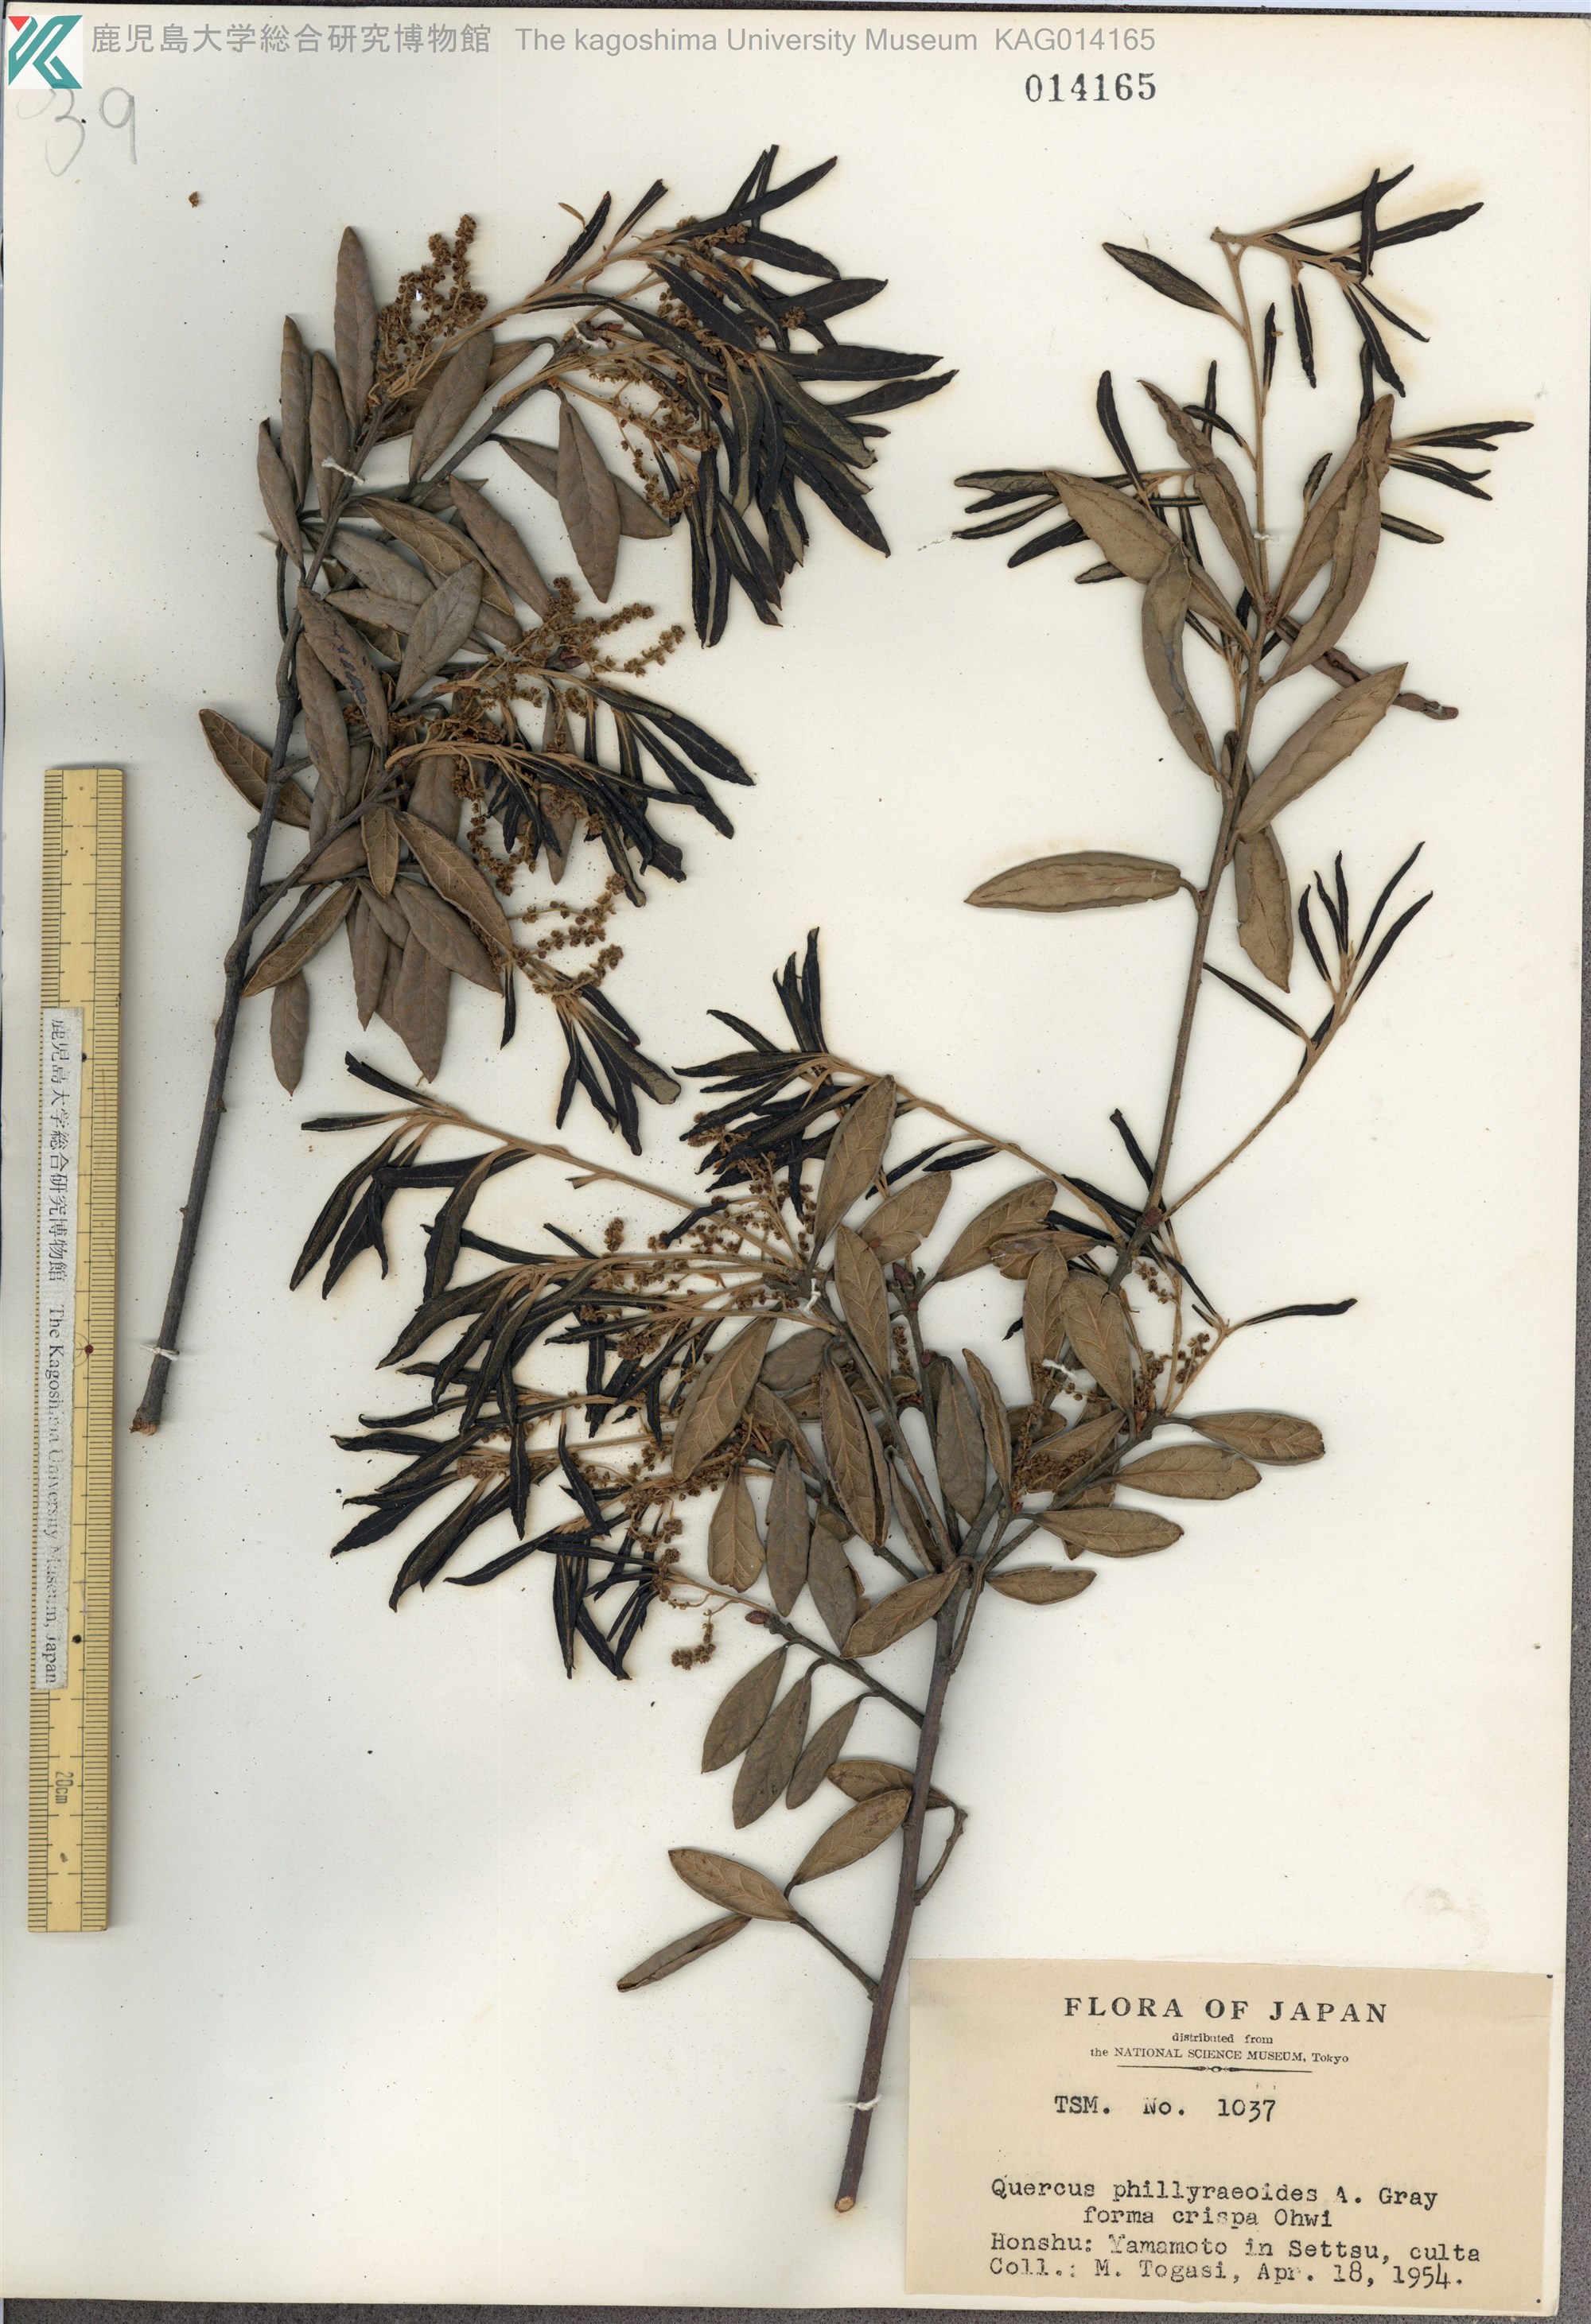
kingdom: Plantae
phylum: Tracheophyta
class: Magnoliopsida
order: Fagales
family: Fagaceae
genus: Quercus
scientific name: Quercus phillyreoides
